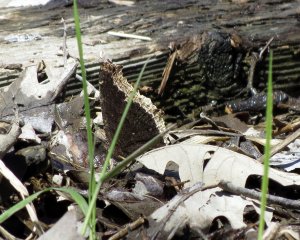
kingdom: Animalia
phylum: Arthropoda
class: Insecta
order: Lepidoptera
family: Nymphalidae
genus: Nymphalis
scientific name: Nymphalis antiopa
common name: Mourning Cloak
